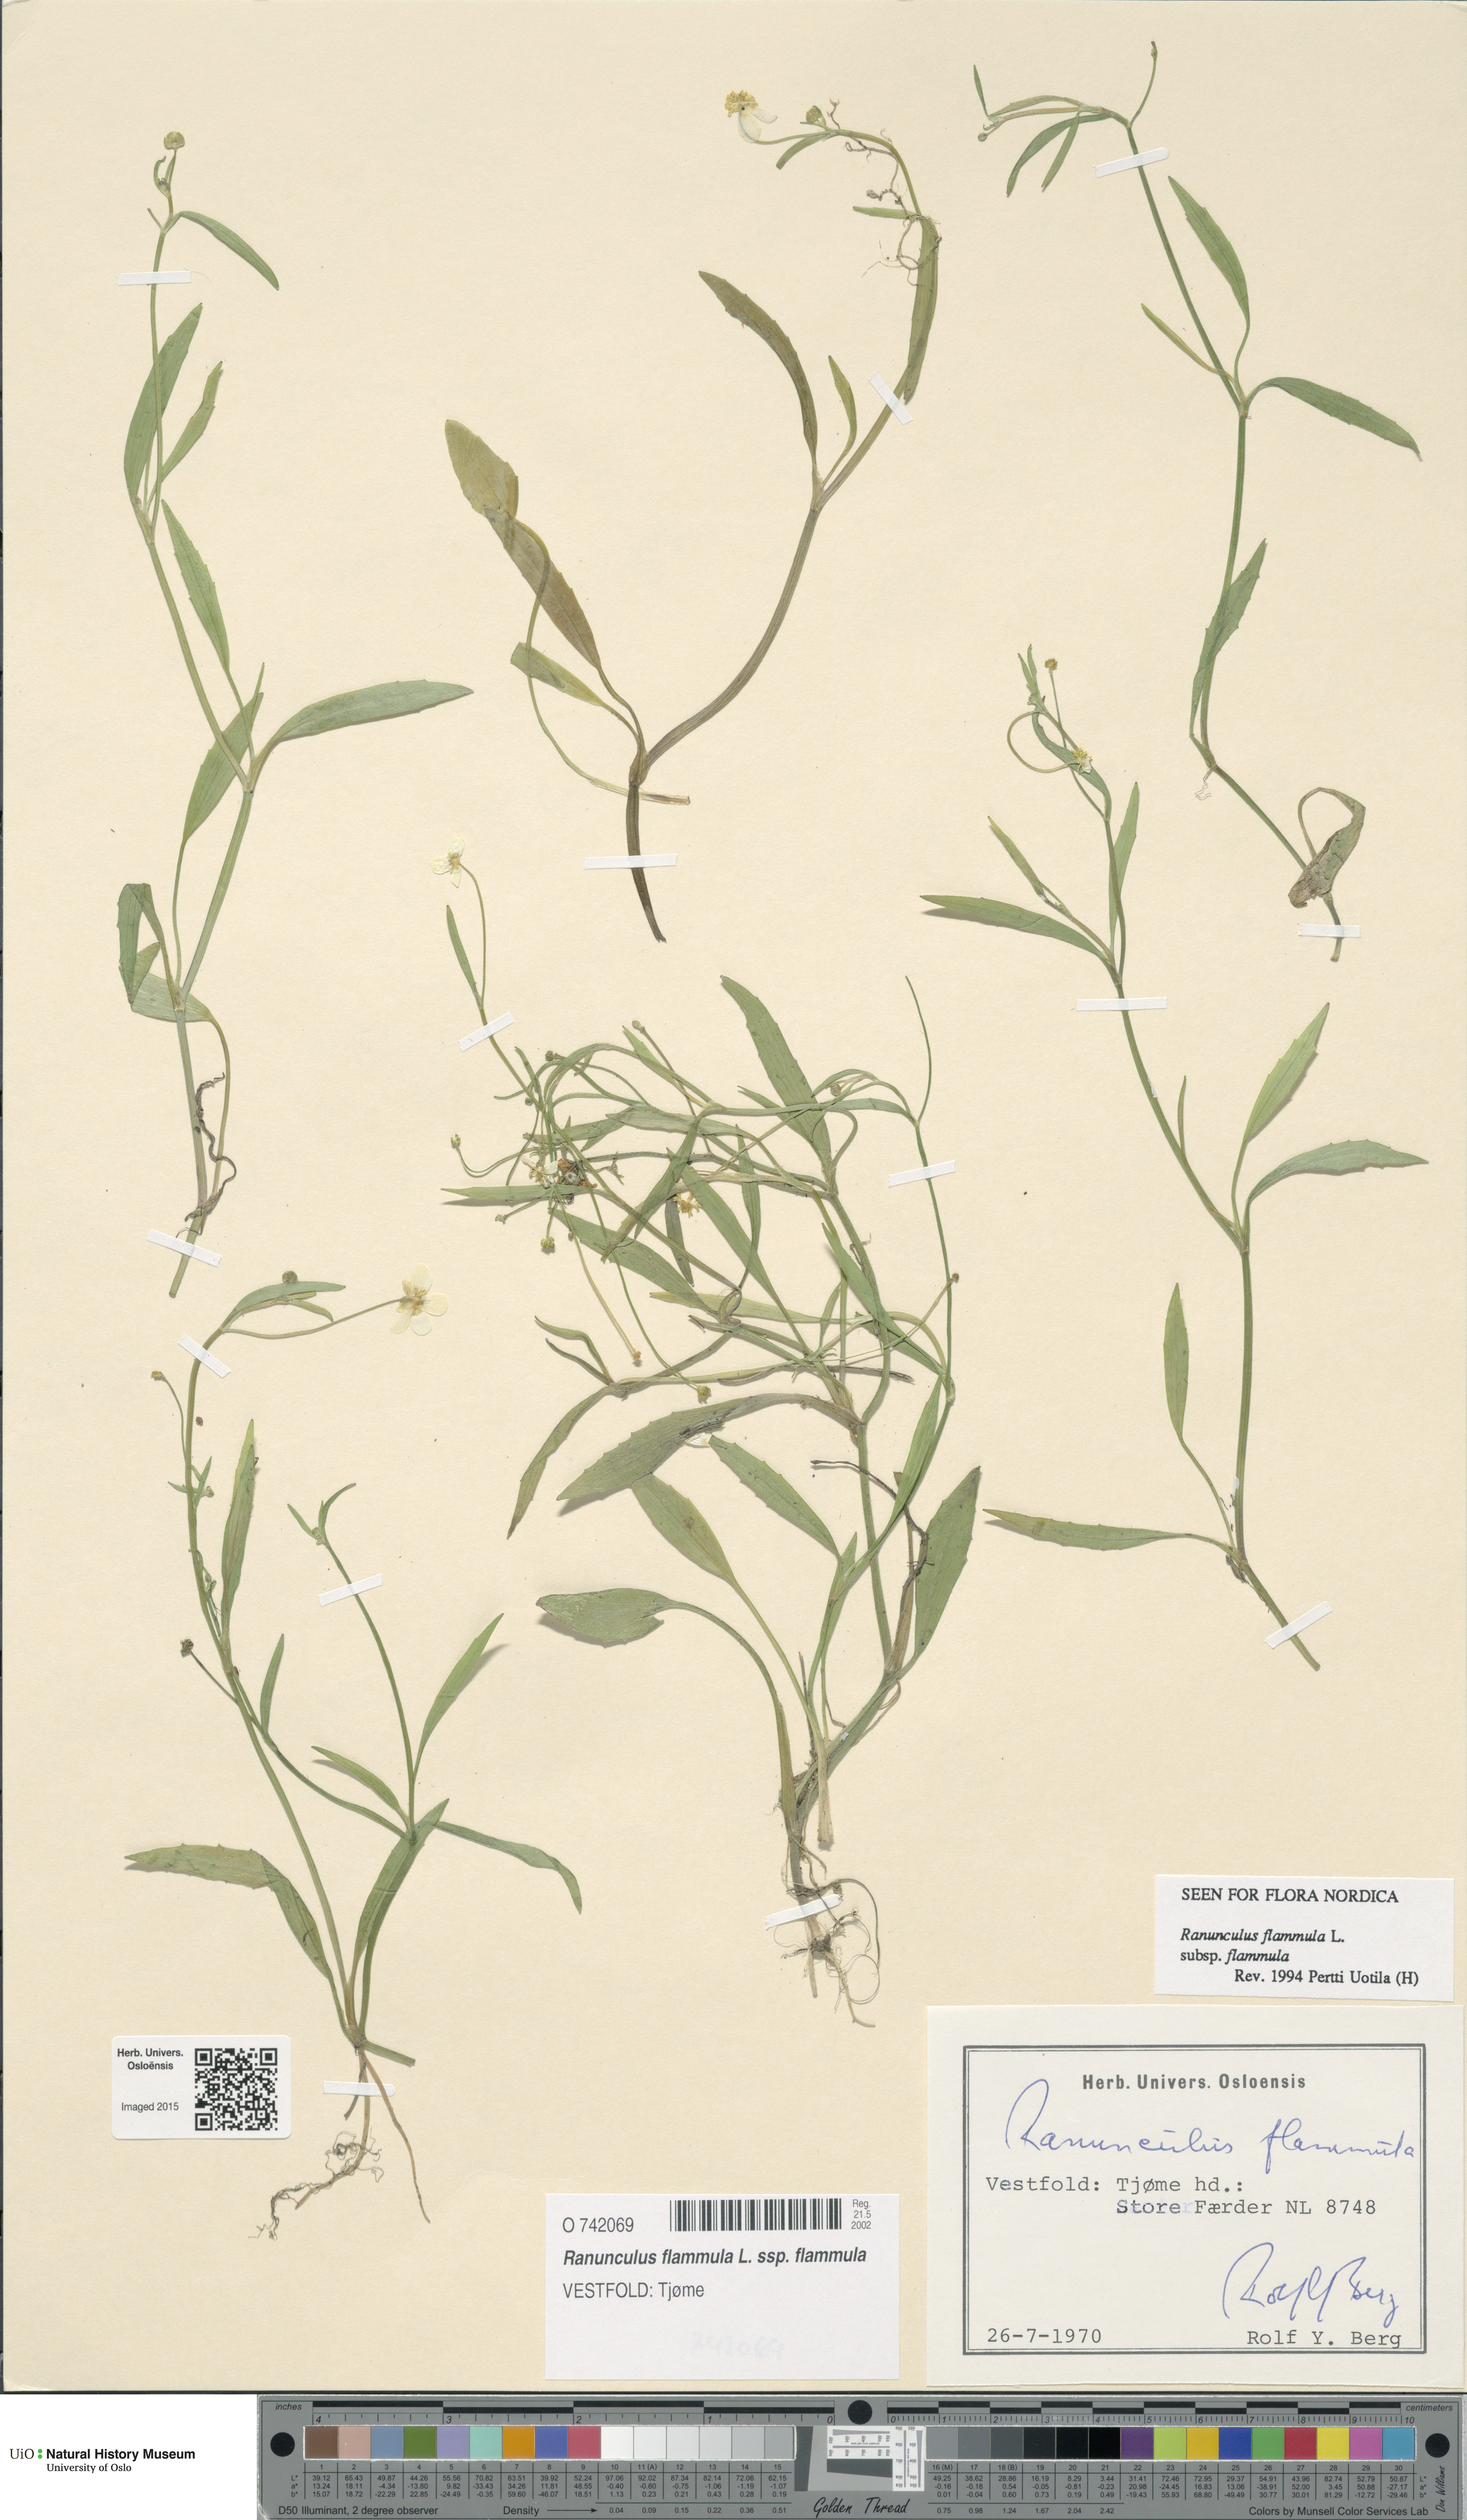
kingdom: Plantae
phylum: Tracheophyta
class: Magnoliopsida
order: Ranunculales
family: Ranunculaceae
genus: Ranunculus
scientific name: Ranunculus flammula
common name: Lesser spearwort
